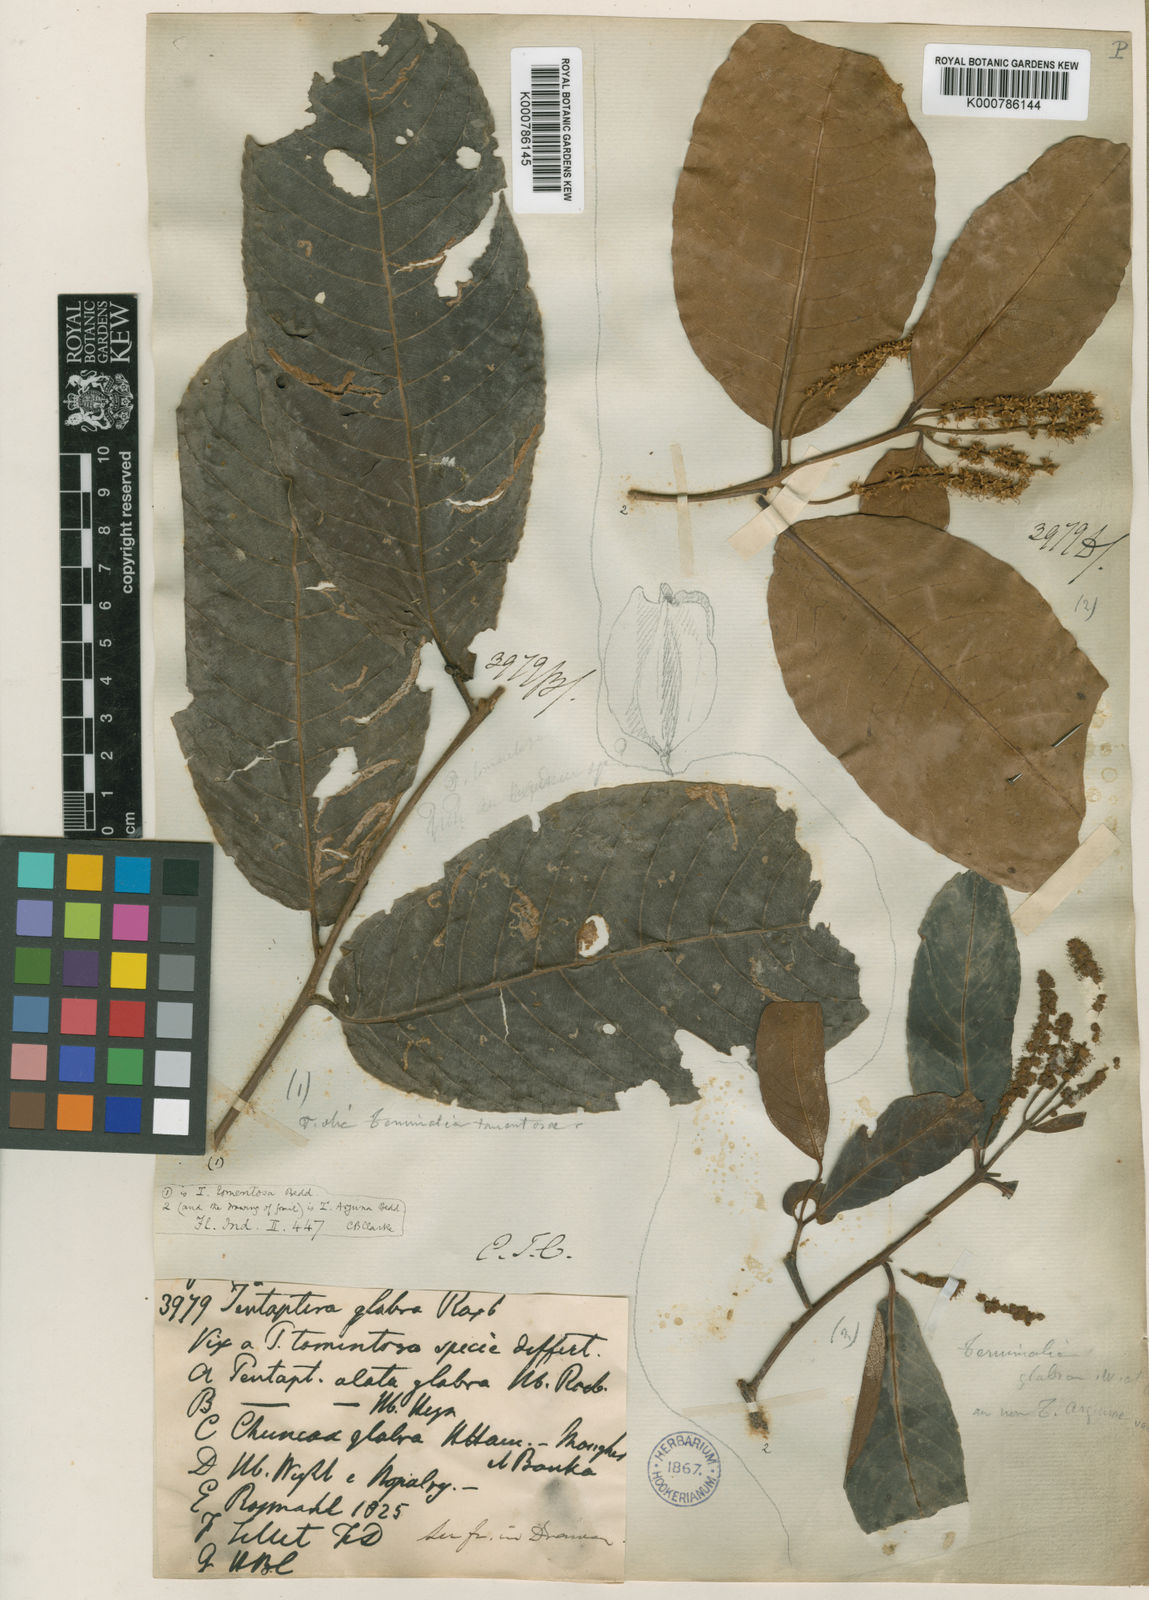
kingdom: Plantae
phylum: Tracheophyta
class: Magnoliopsida
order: Myrtales
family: Combretaceae
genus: Terminalia
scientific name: Terminalia
